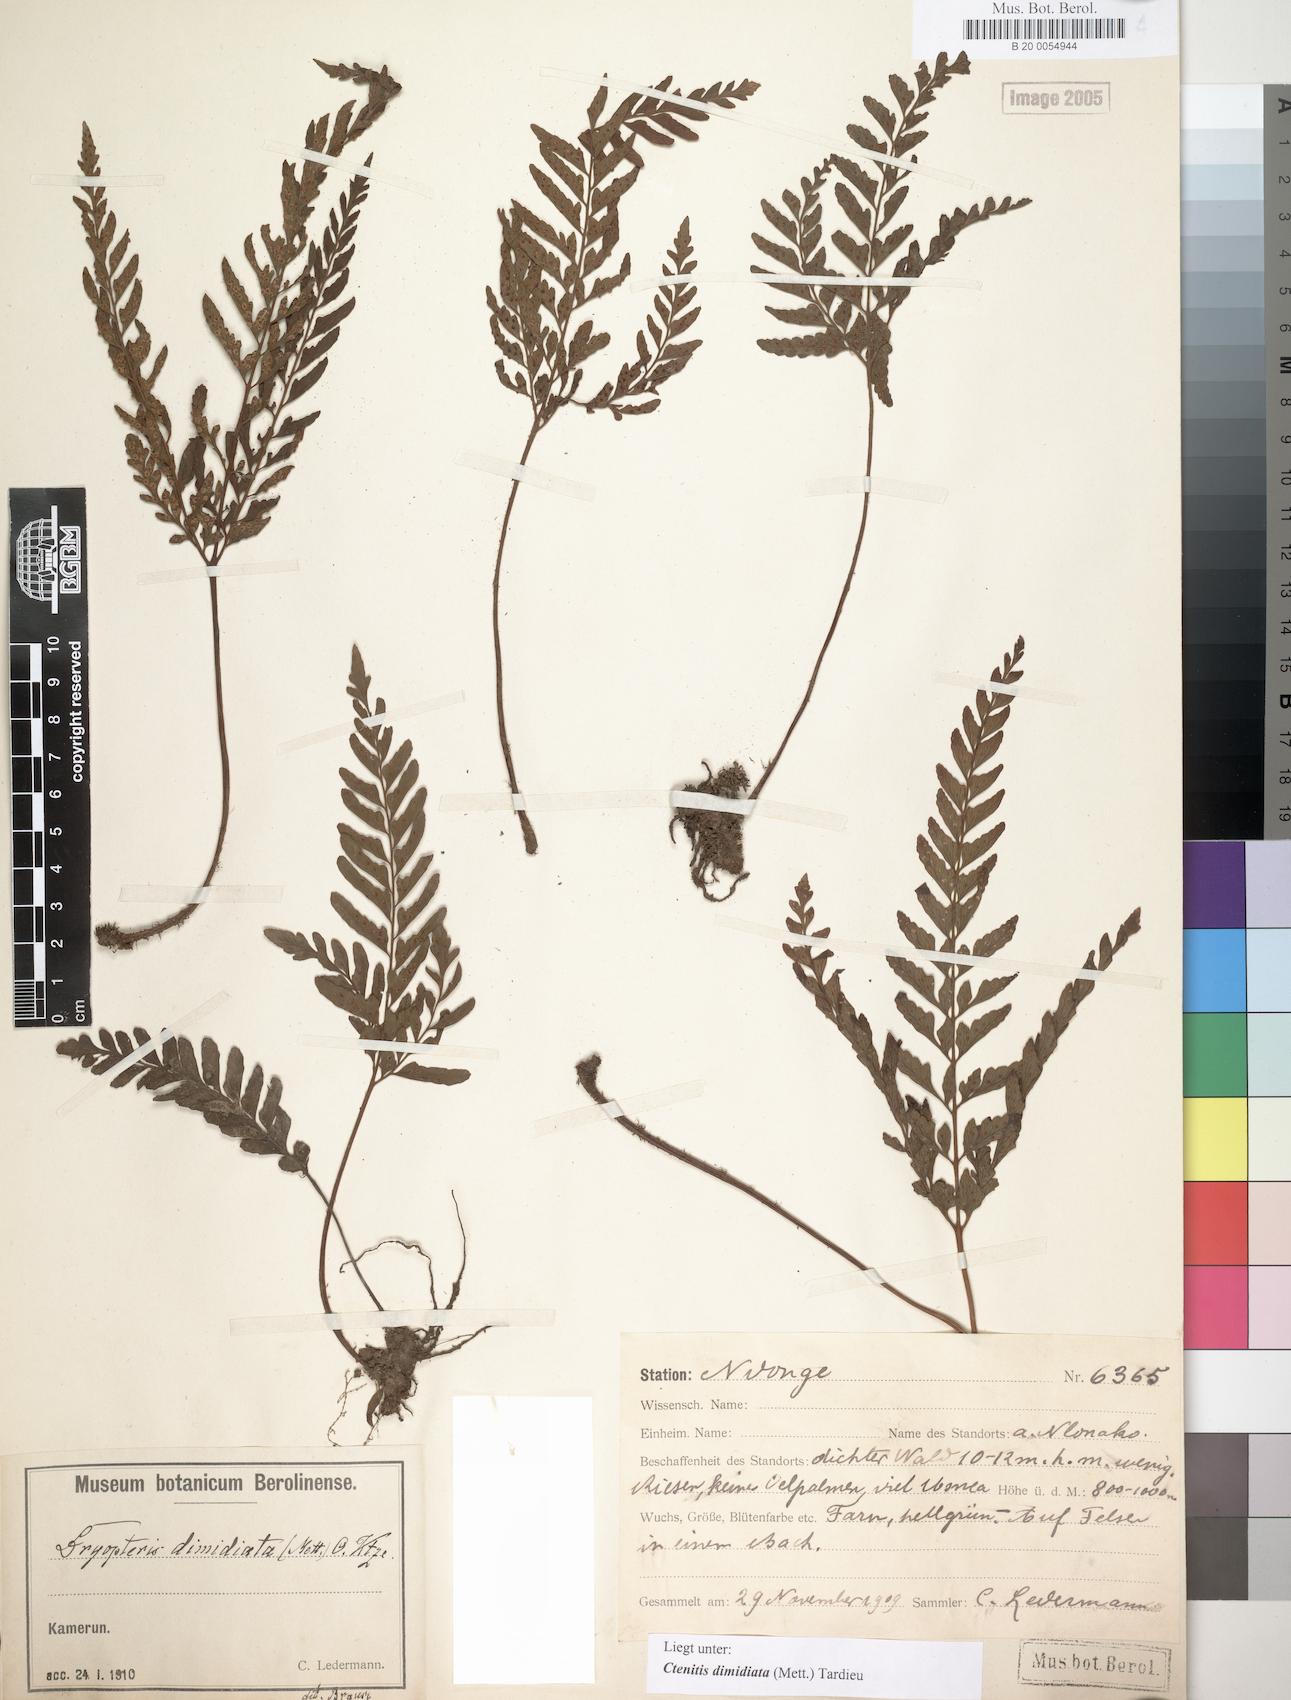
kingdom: Plantae
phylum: Tracheophyta
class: Polypodiopsida
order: Polypodiales
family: Tectariaceae
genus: Triplophyllum
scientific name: Triplophyllum dimidiatum
